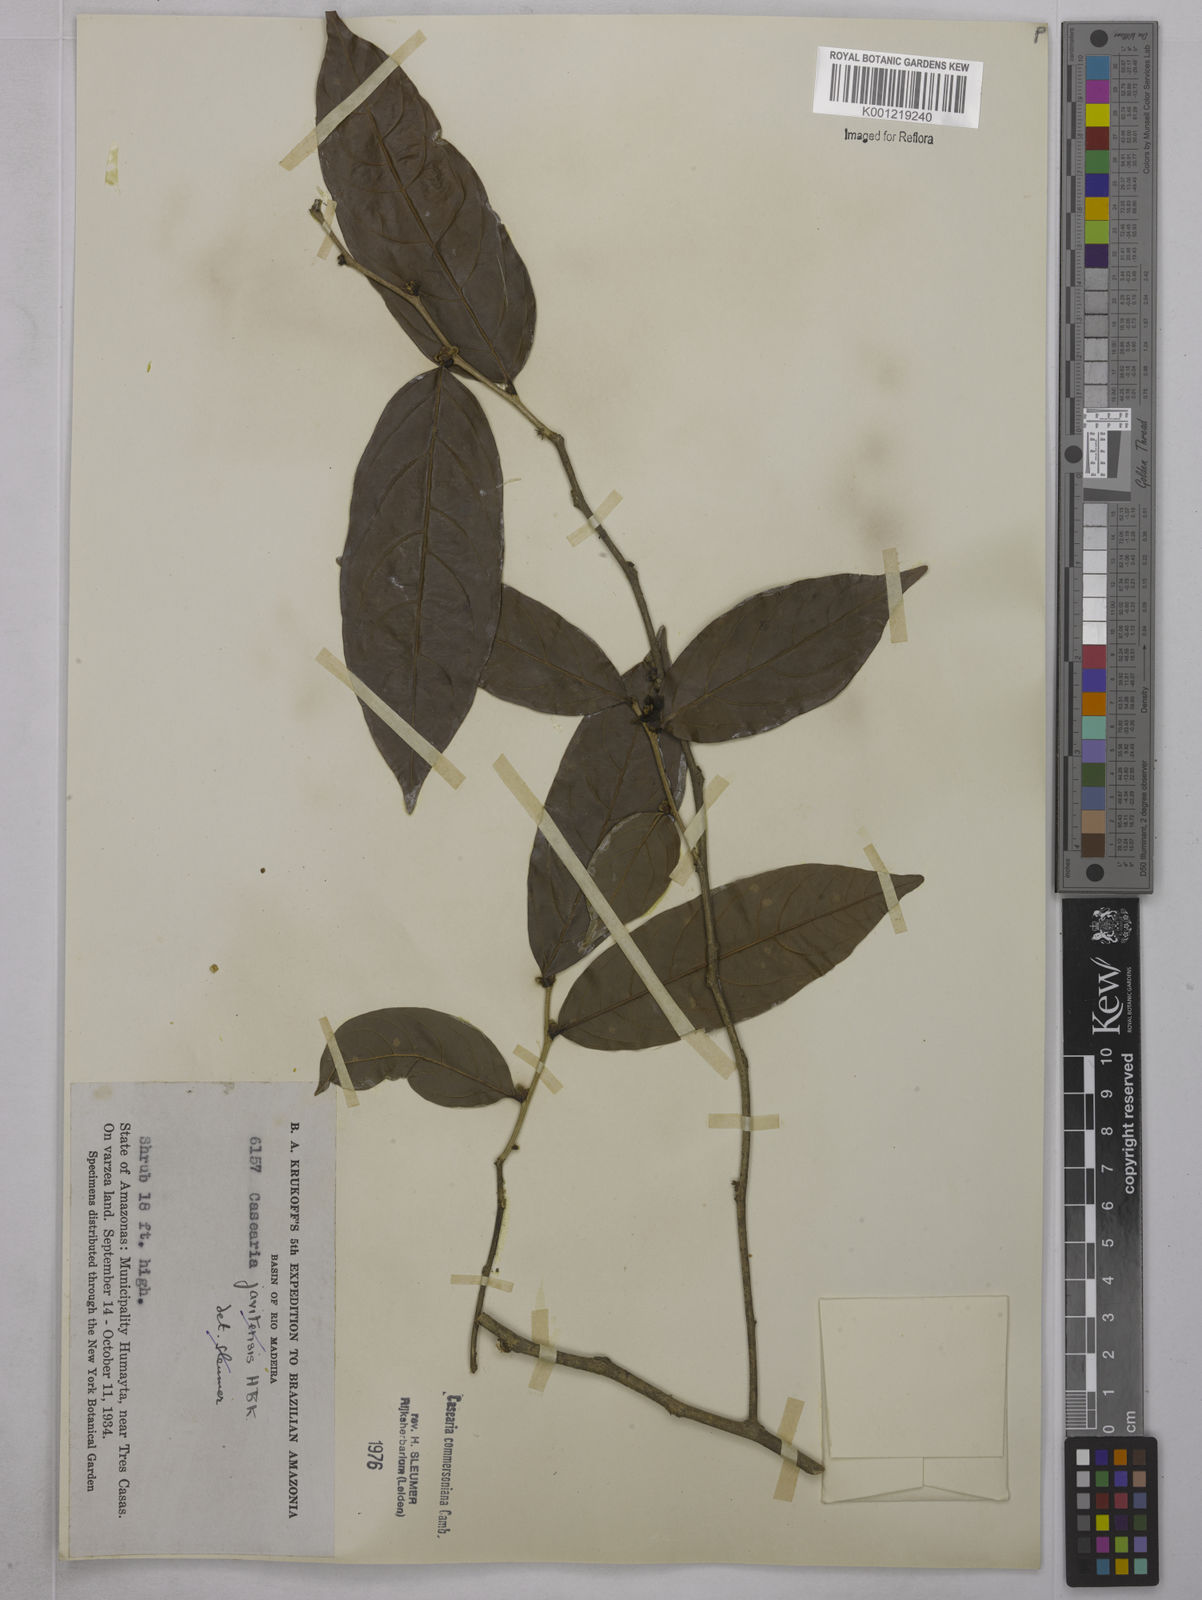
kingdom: Plantae
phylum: Tracheophyta
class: Magnoliopsida
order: Malpighiales
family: Salicaceae
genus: Piparea
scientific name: Piparea multiflora
